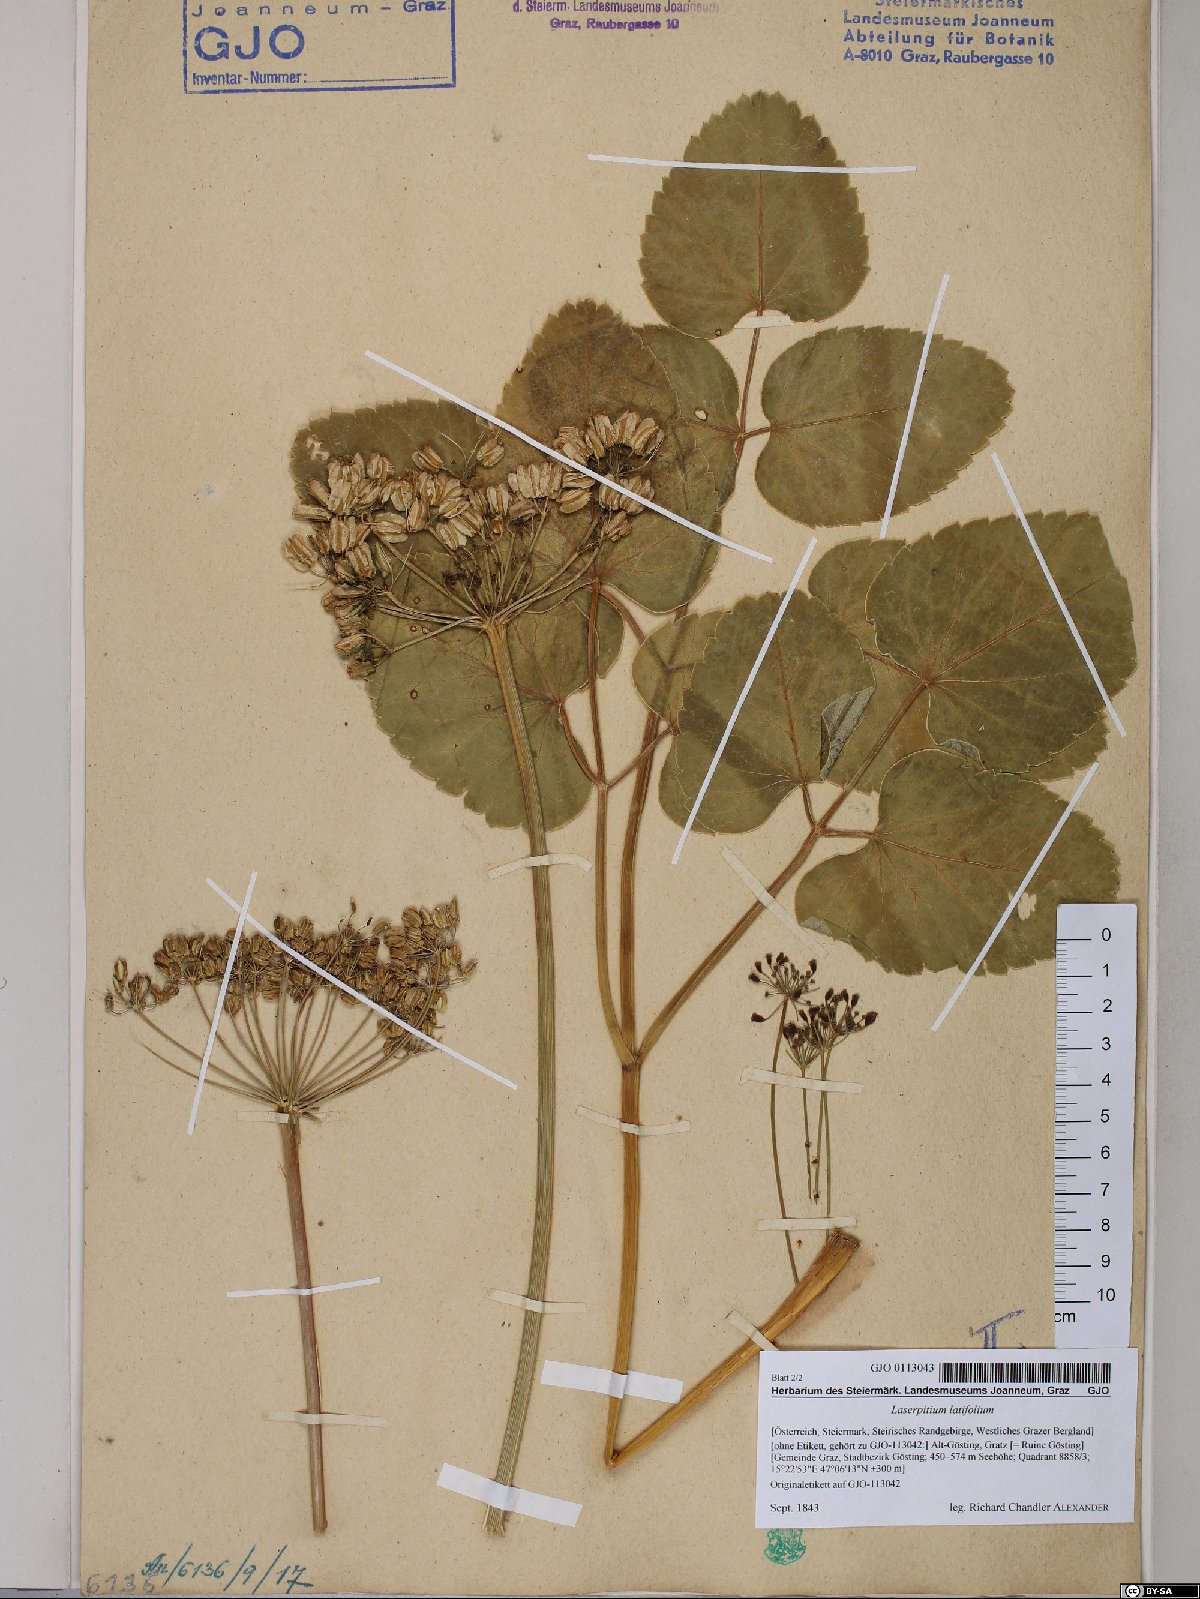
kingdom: Plantae
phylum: Tracheophyta
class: Magnoliopsida
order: Apiales
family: Apiaceae
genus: Laserpitium
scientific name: Laserpitium latifolium
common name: Broadleaf sermountain
